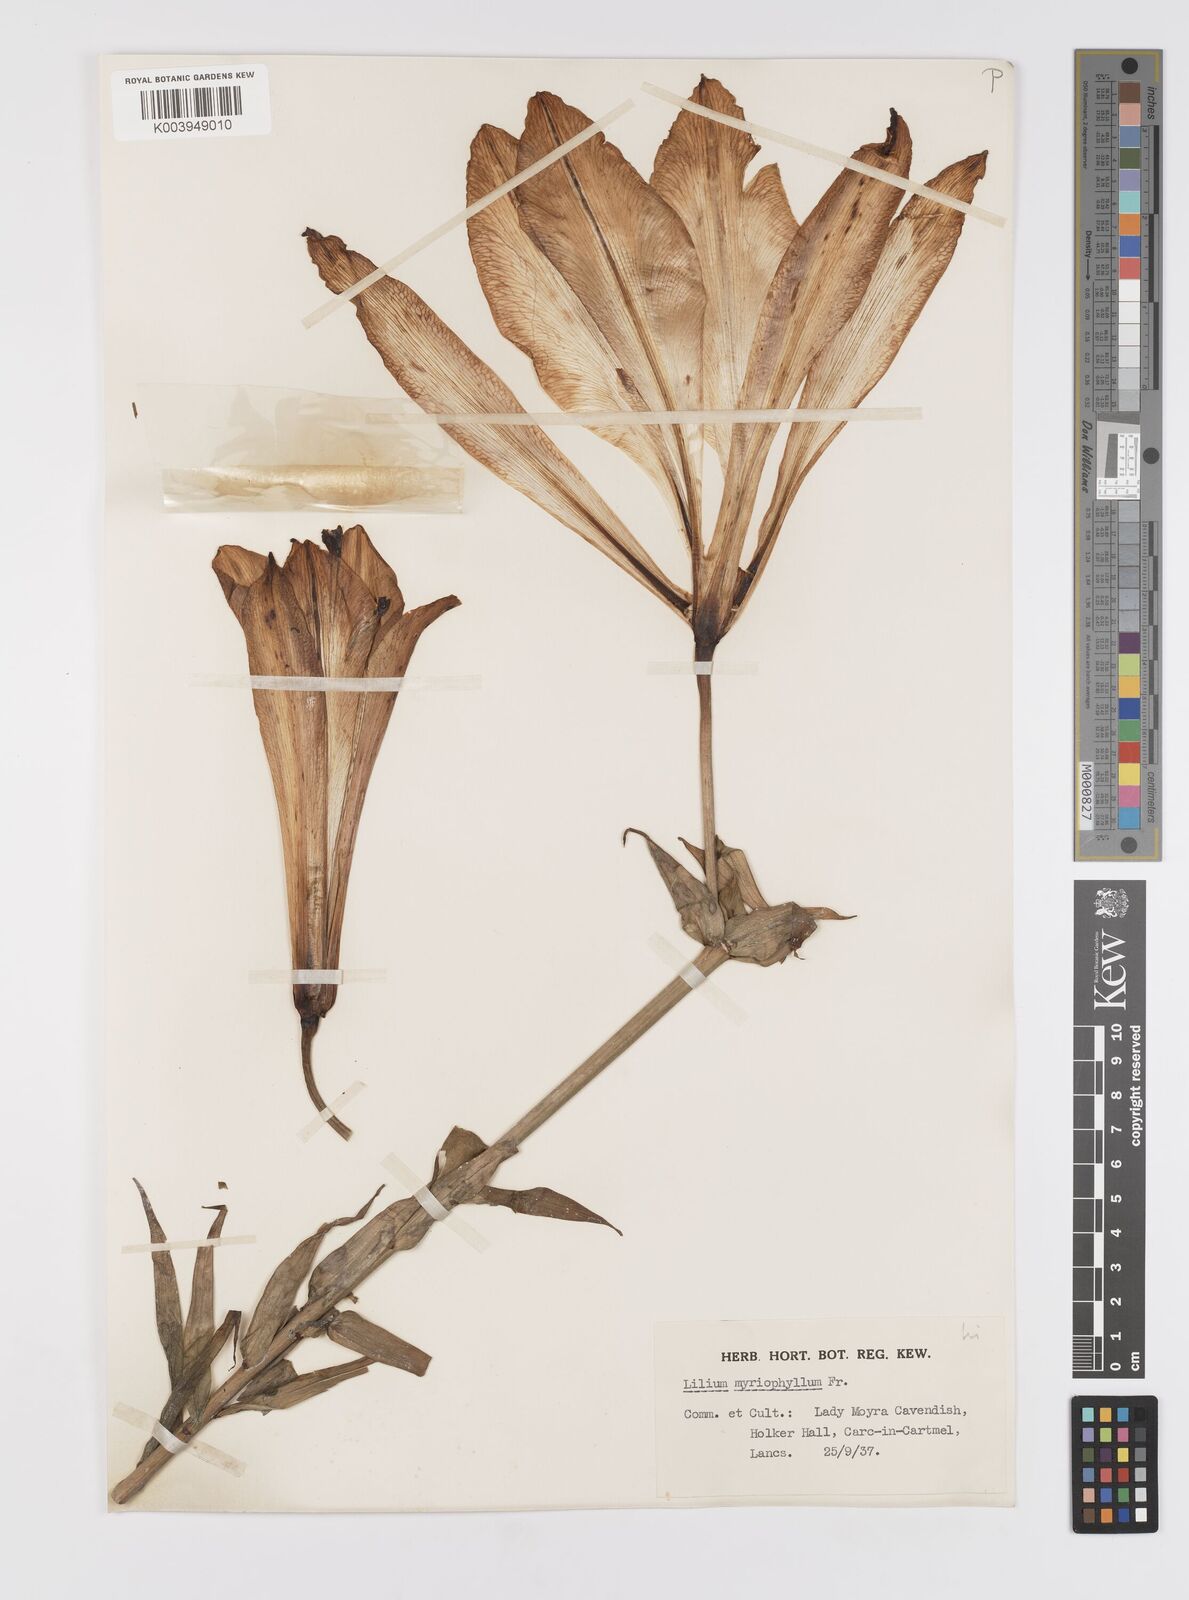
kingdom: Plantae
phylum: Tracheophyta
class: Liliopsida
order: Liliales
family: Liliaceae
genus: Lilium
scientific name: Lilium
